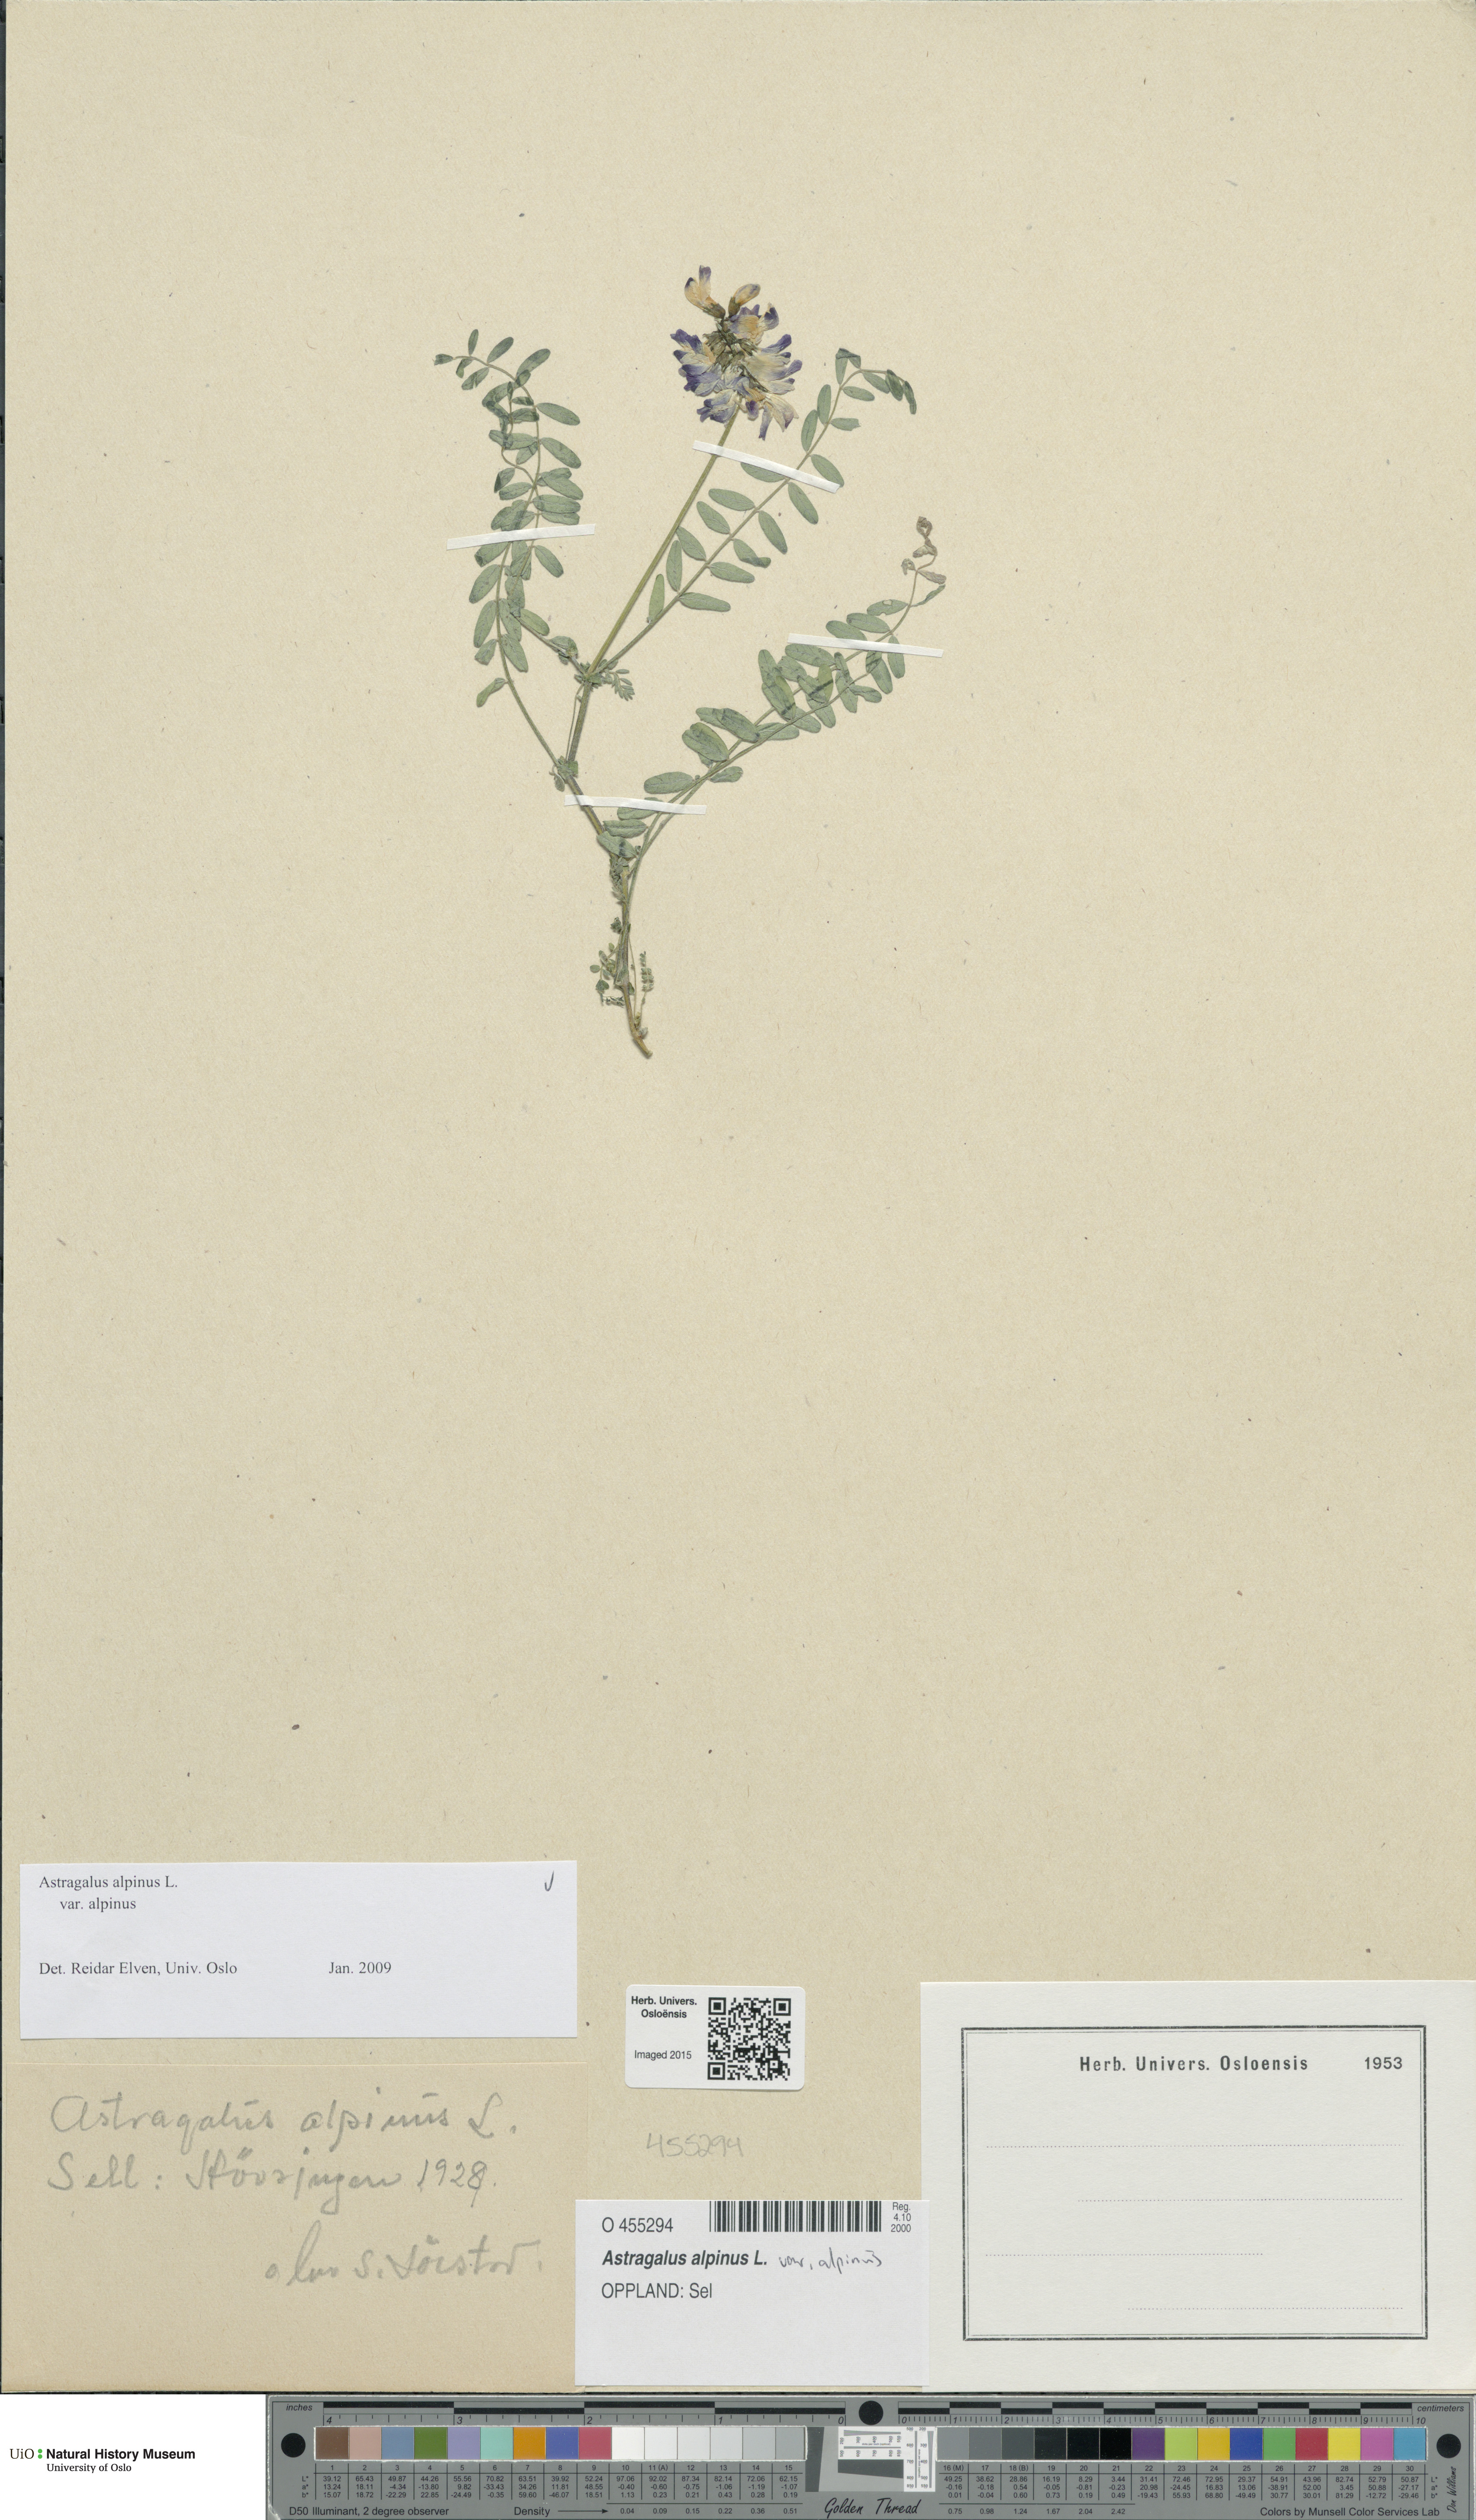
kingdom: Plantae
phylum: Tracheophyta
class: Magnoliopsida
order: Fabales
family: Fabaceae
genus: Astragalus
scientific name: Astragalus alpinus
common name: Alpine milk-vetch
